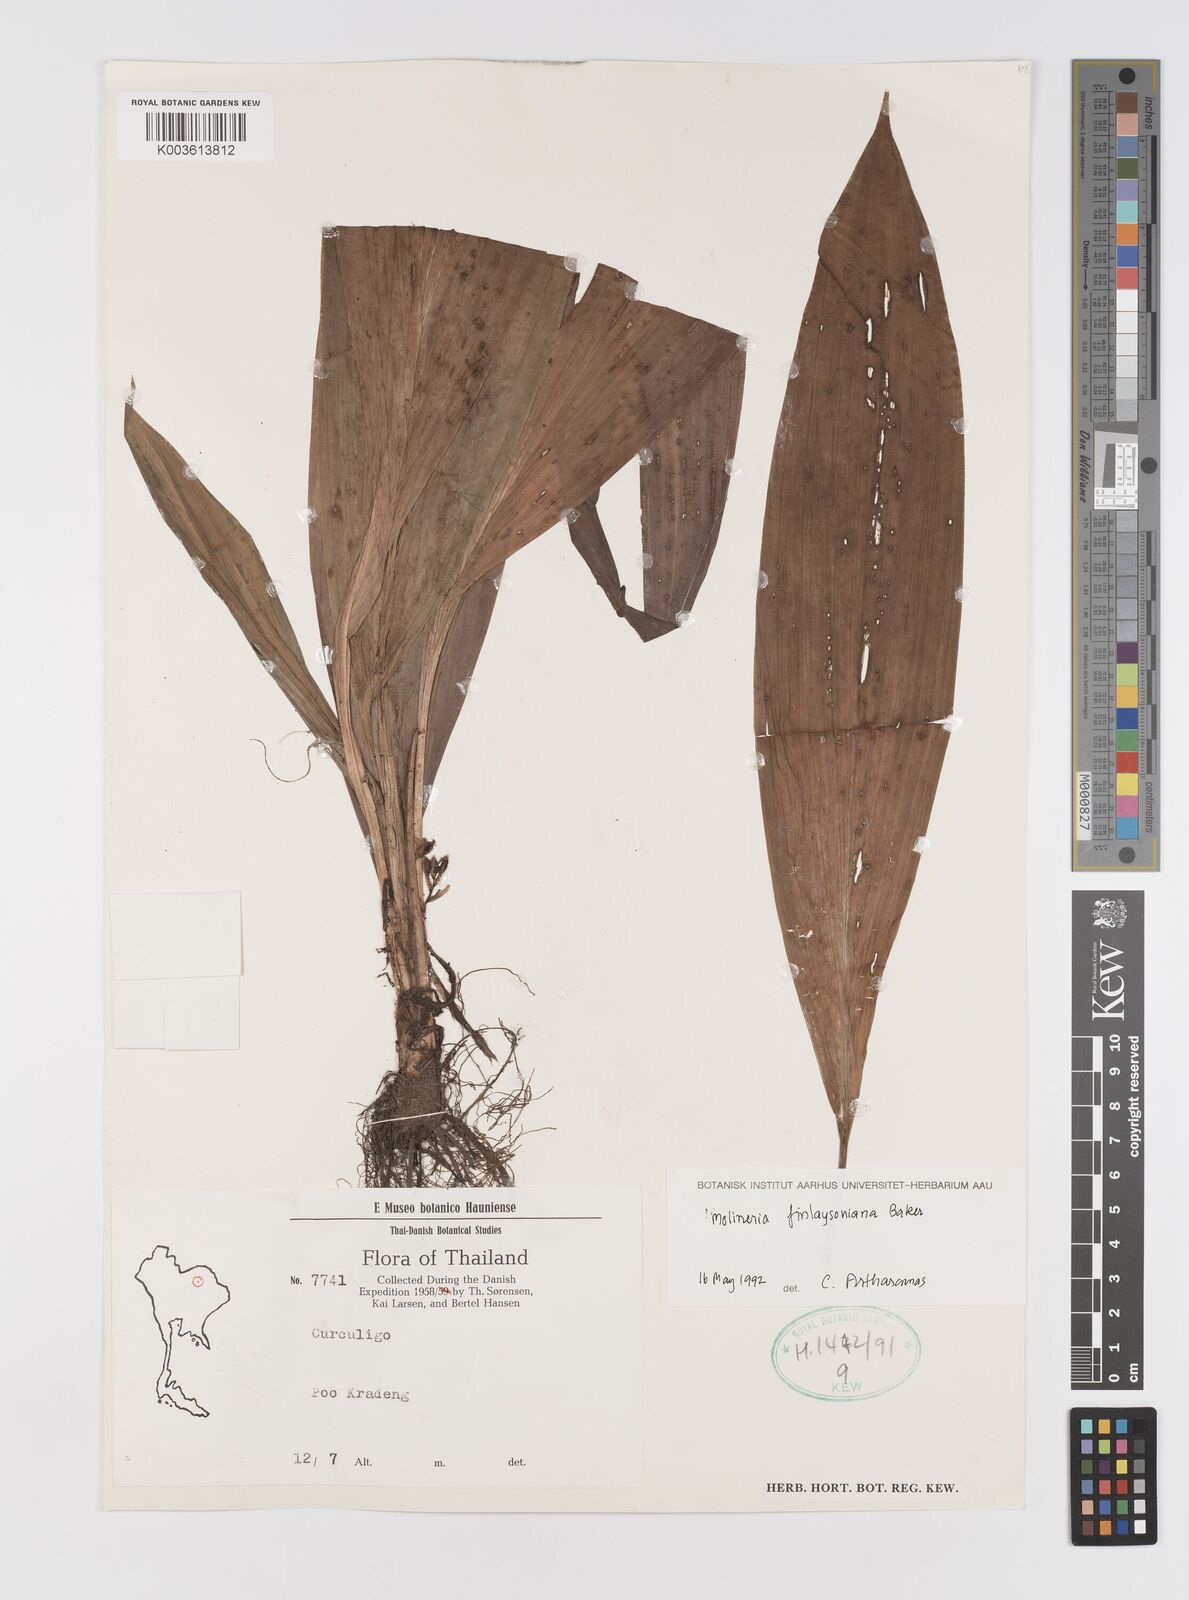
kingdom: Plantae
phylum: Tracheophyta
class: Liliopsida
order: Asparagales
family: Hypoxidaceae
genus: Curculigo
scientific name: Curculigo trichocarpa
